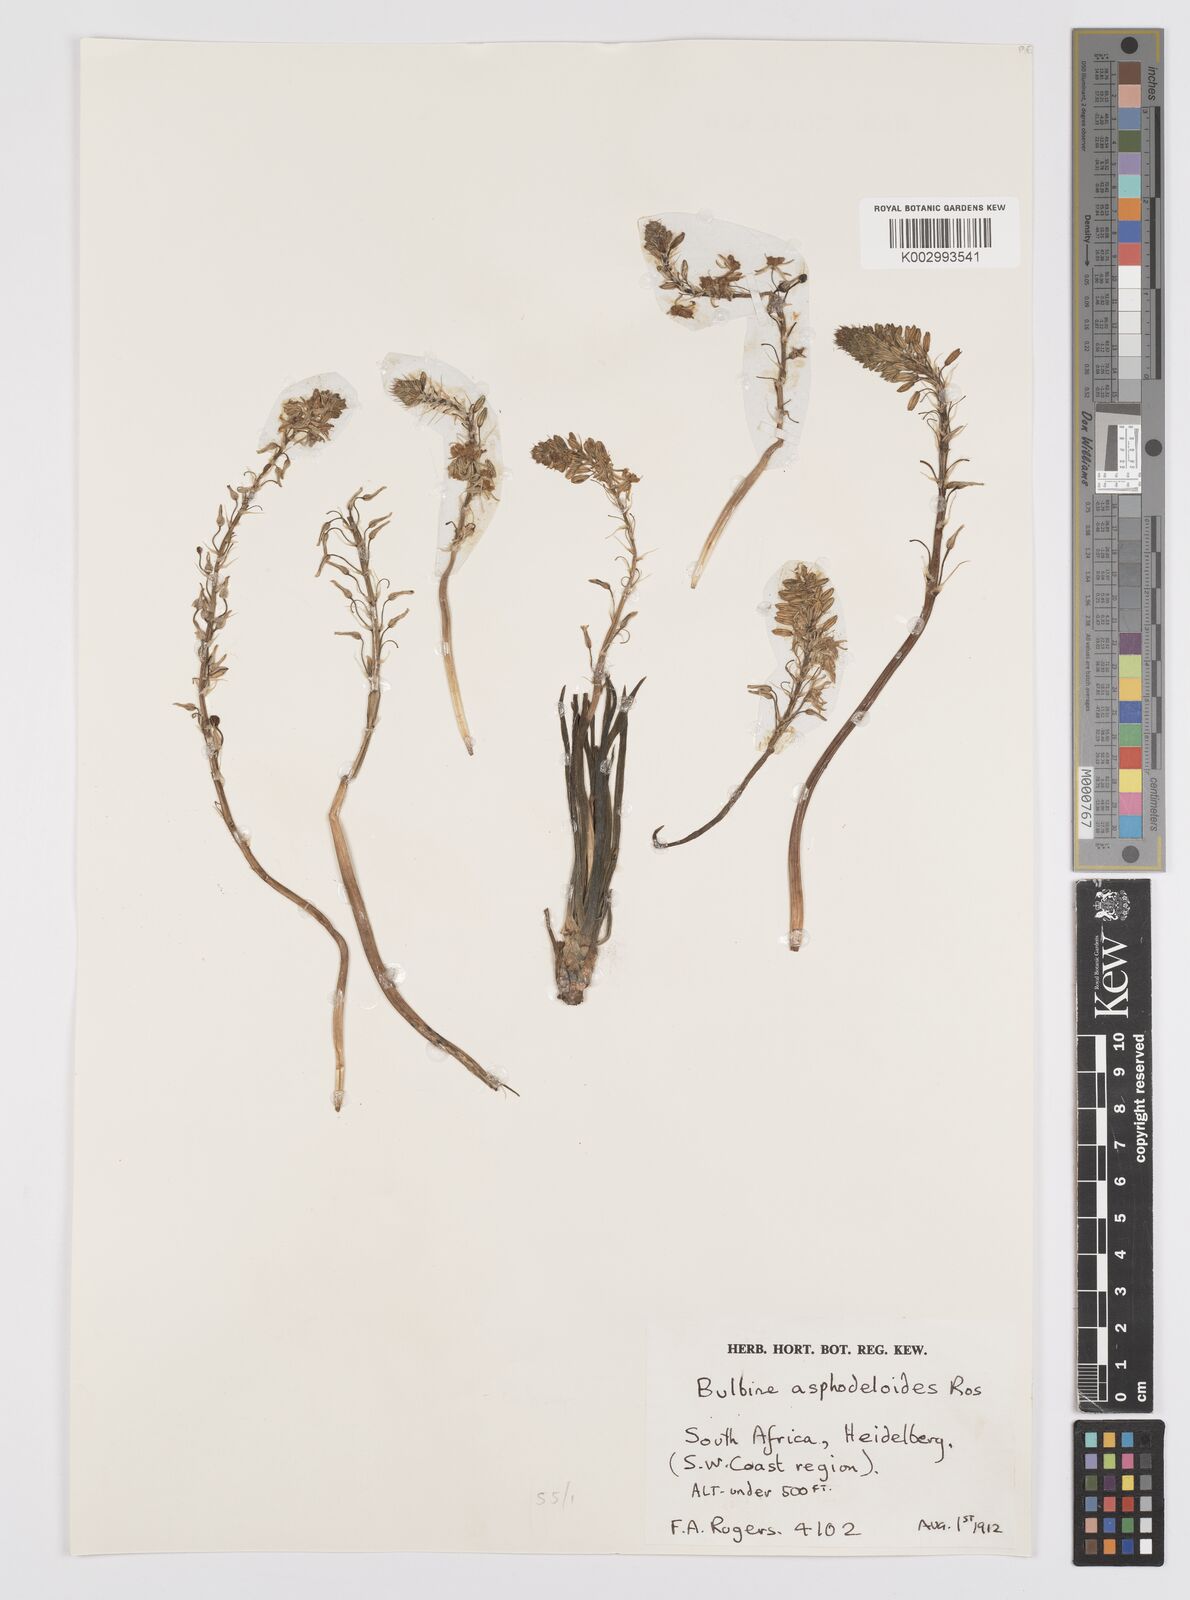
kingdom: Plantae
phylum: Tracheophyta
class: Liliopsida
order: Asparagales
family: Asphodelaceae
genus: Bulbine
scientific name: Bulbine asphodeloides
